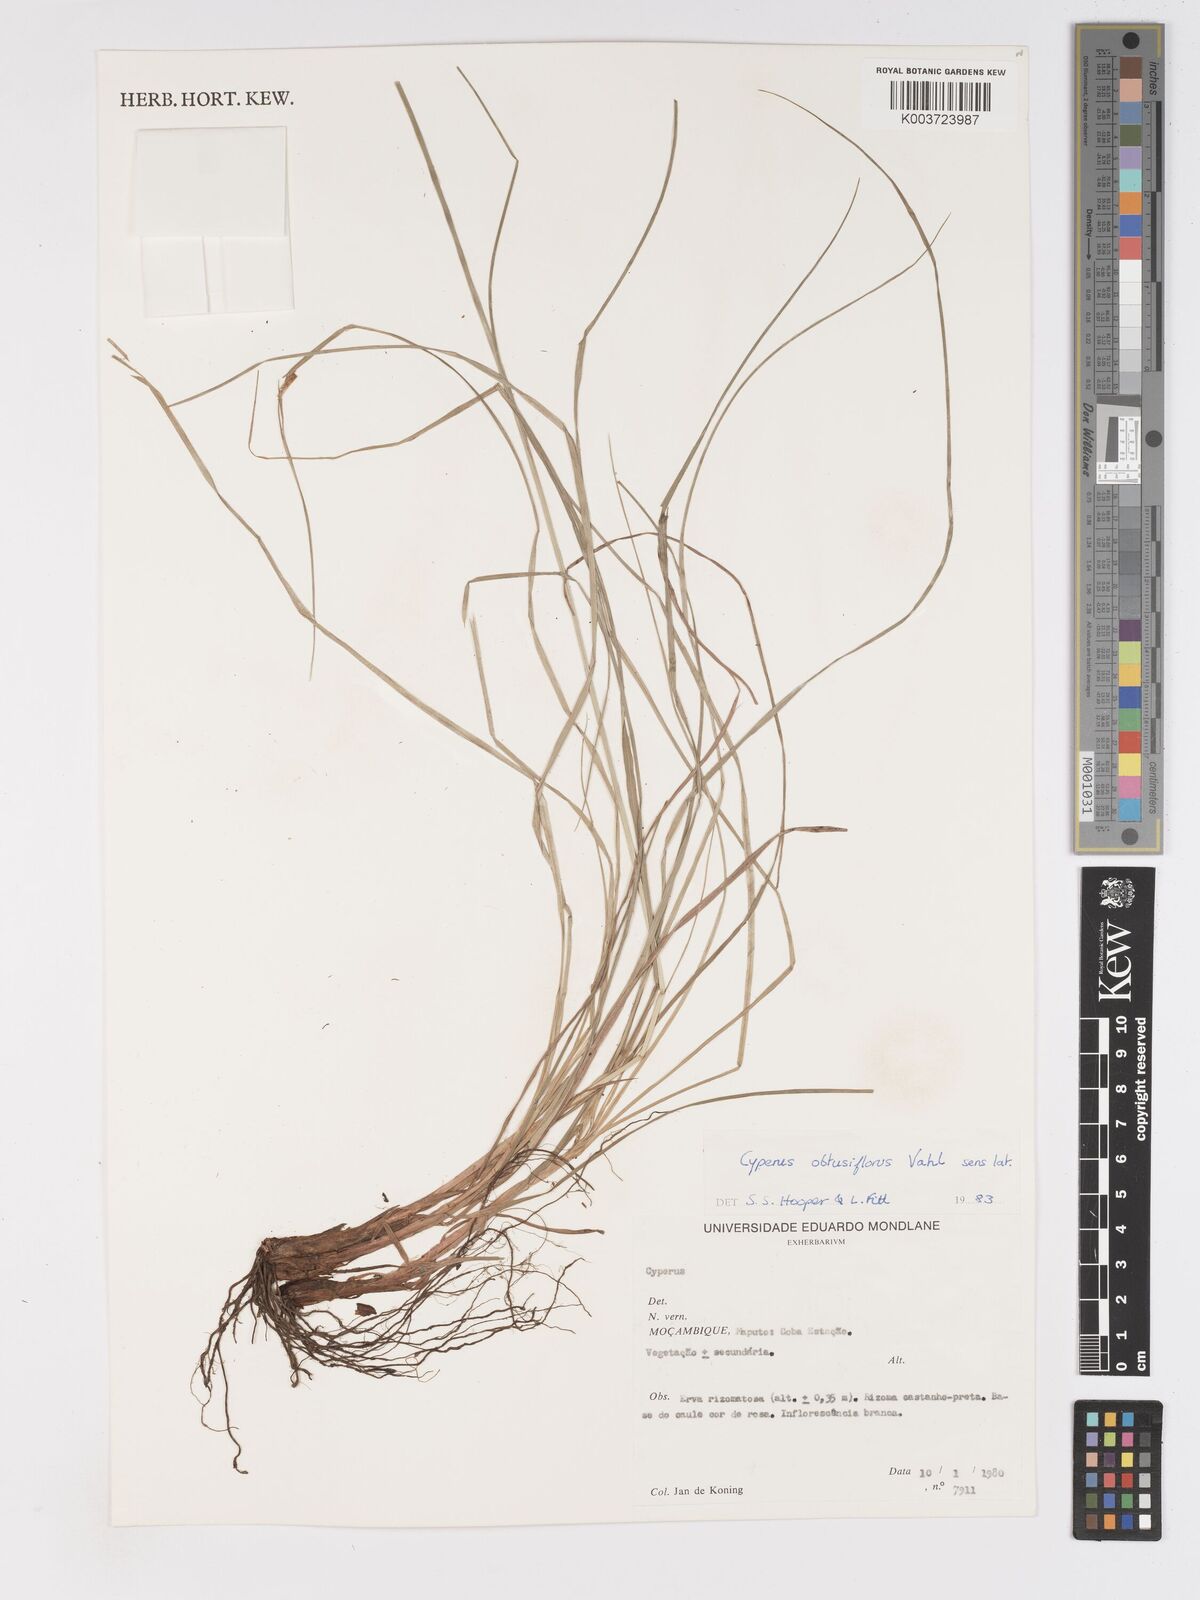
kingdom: Plantae
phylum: Tracheophyta
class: Liliopsida
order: Poales
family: Cyperaceae
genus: Cyperus
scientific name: Cyperus compactus
